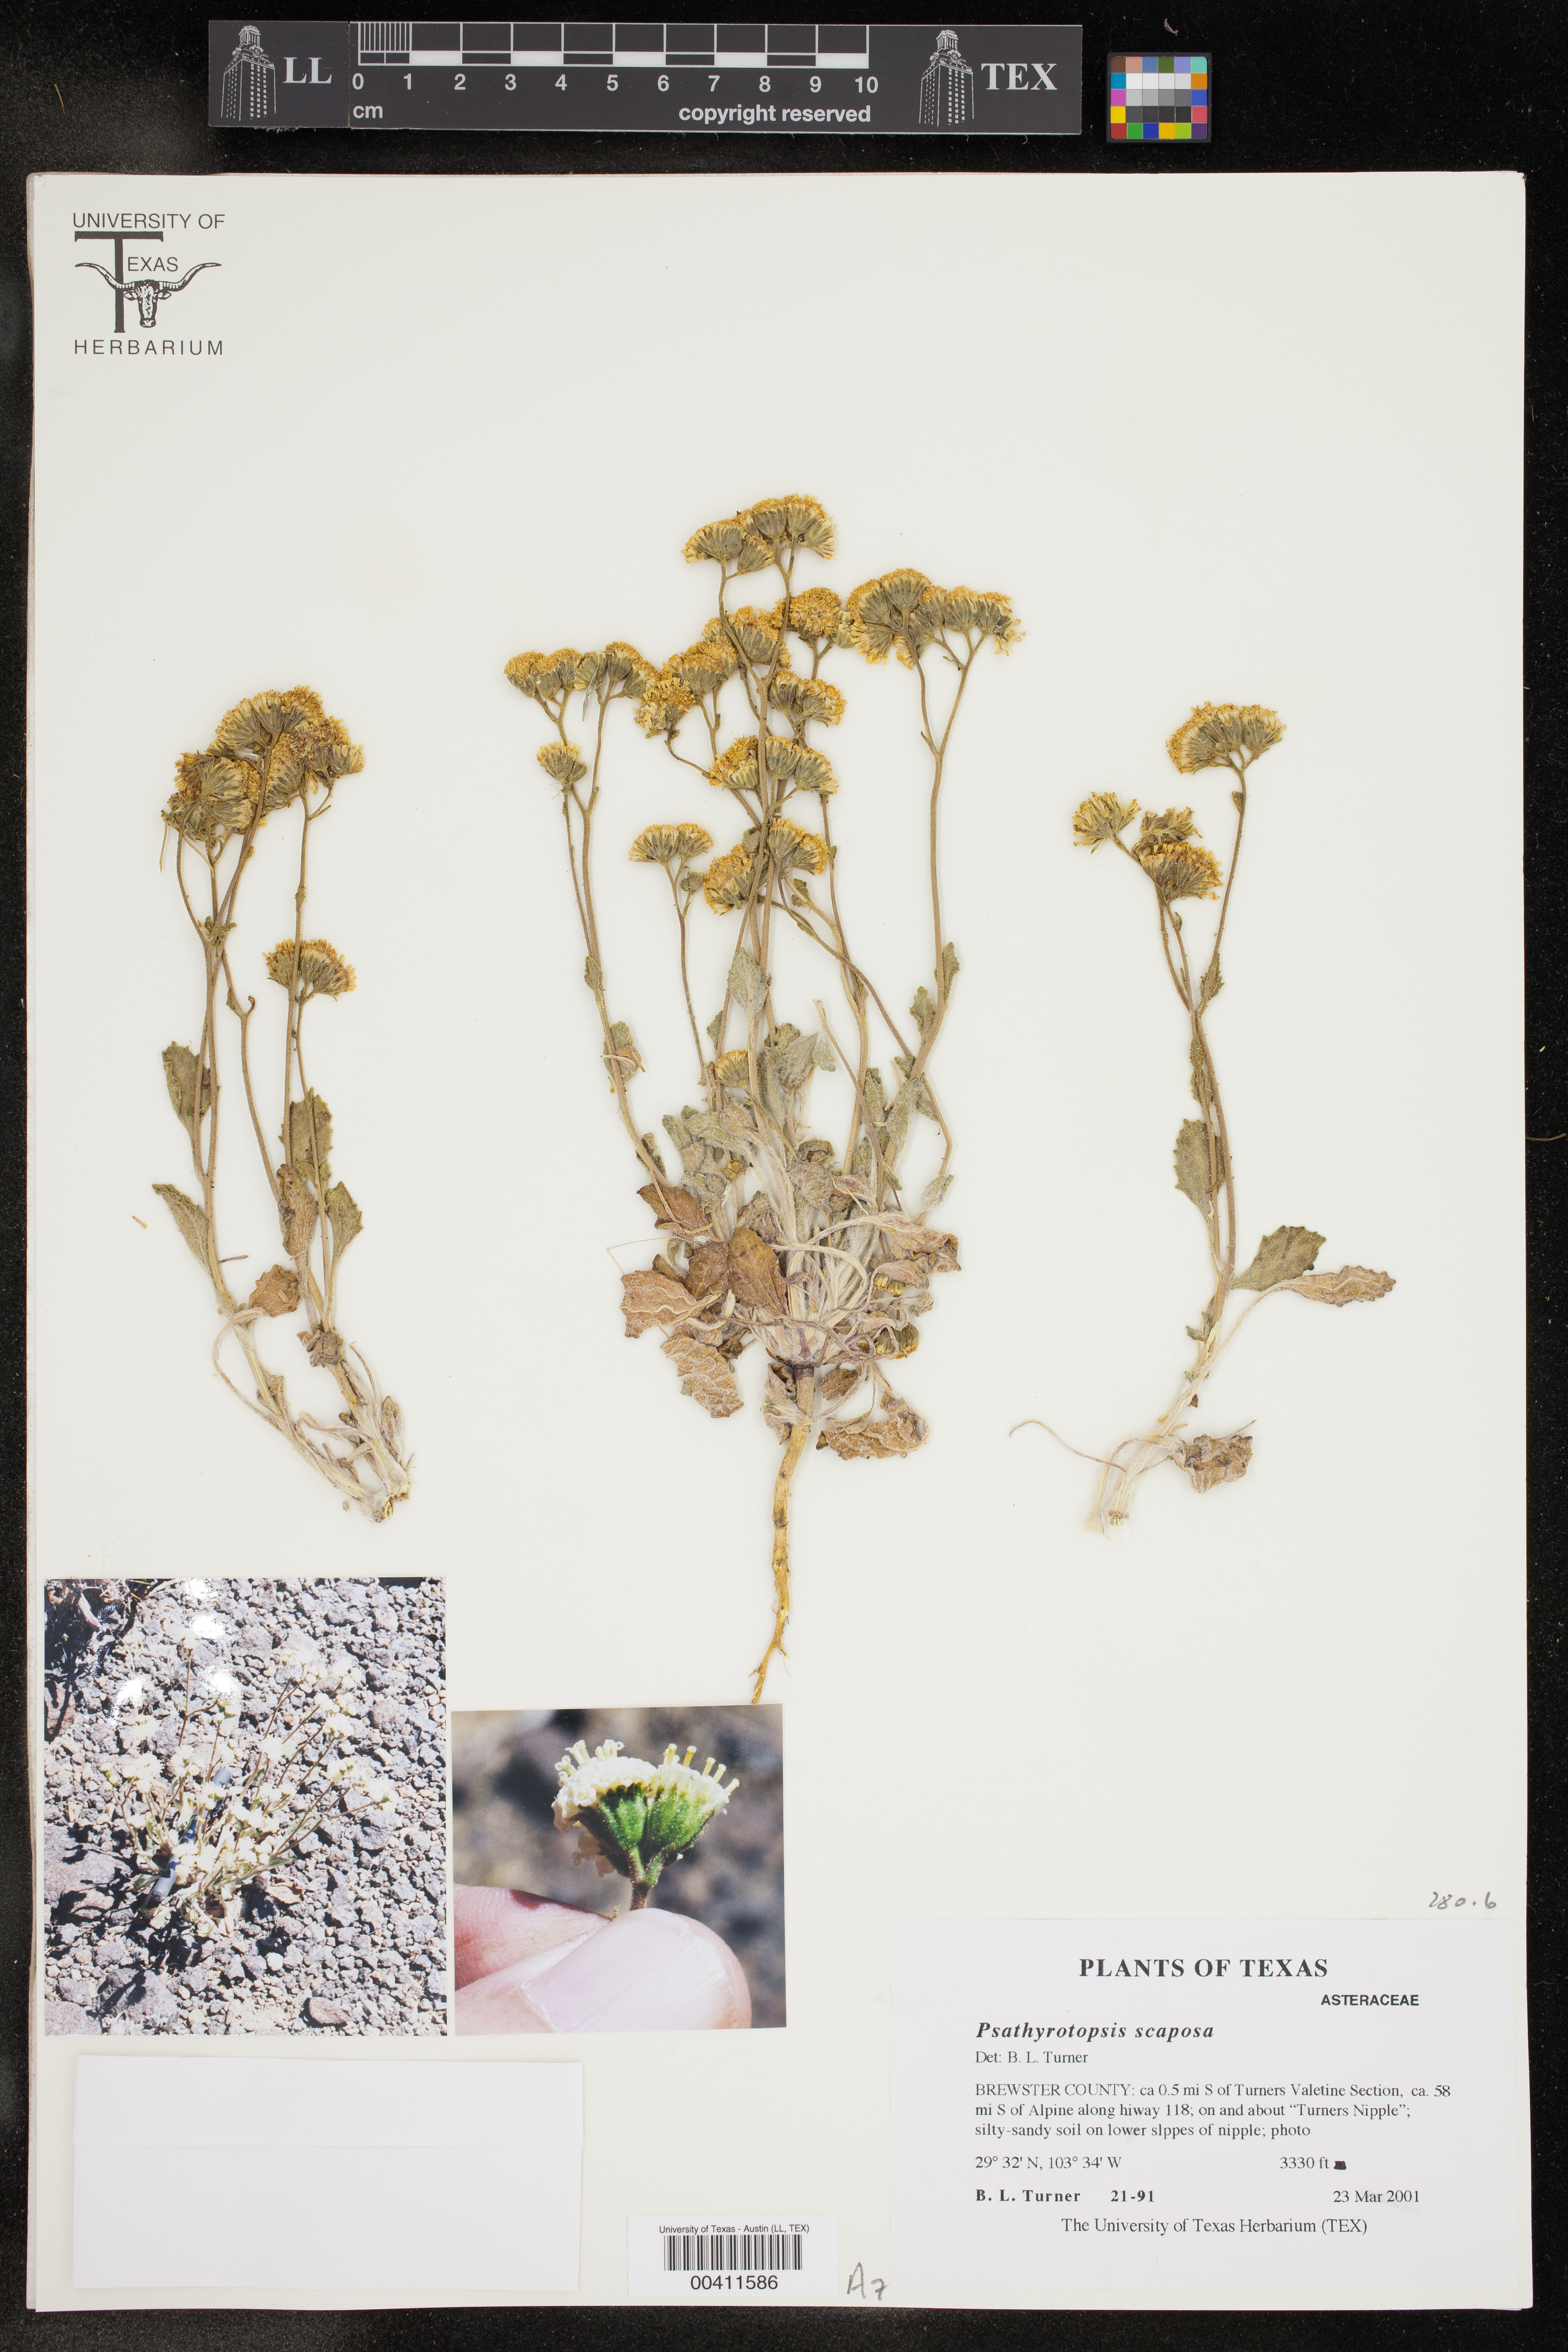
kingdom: Plantae
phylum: Tracheophyta
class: Magnoliopsida
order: Asterales
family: Asteraceae
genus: Psathyrotopsis
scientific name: Psathyrotopsis scaposa
